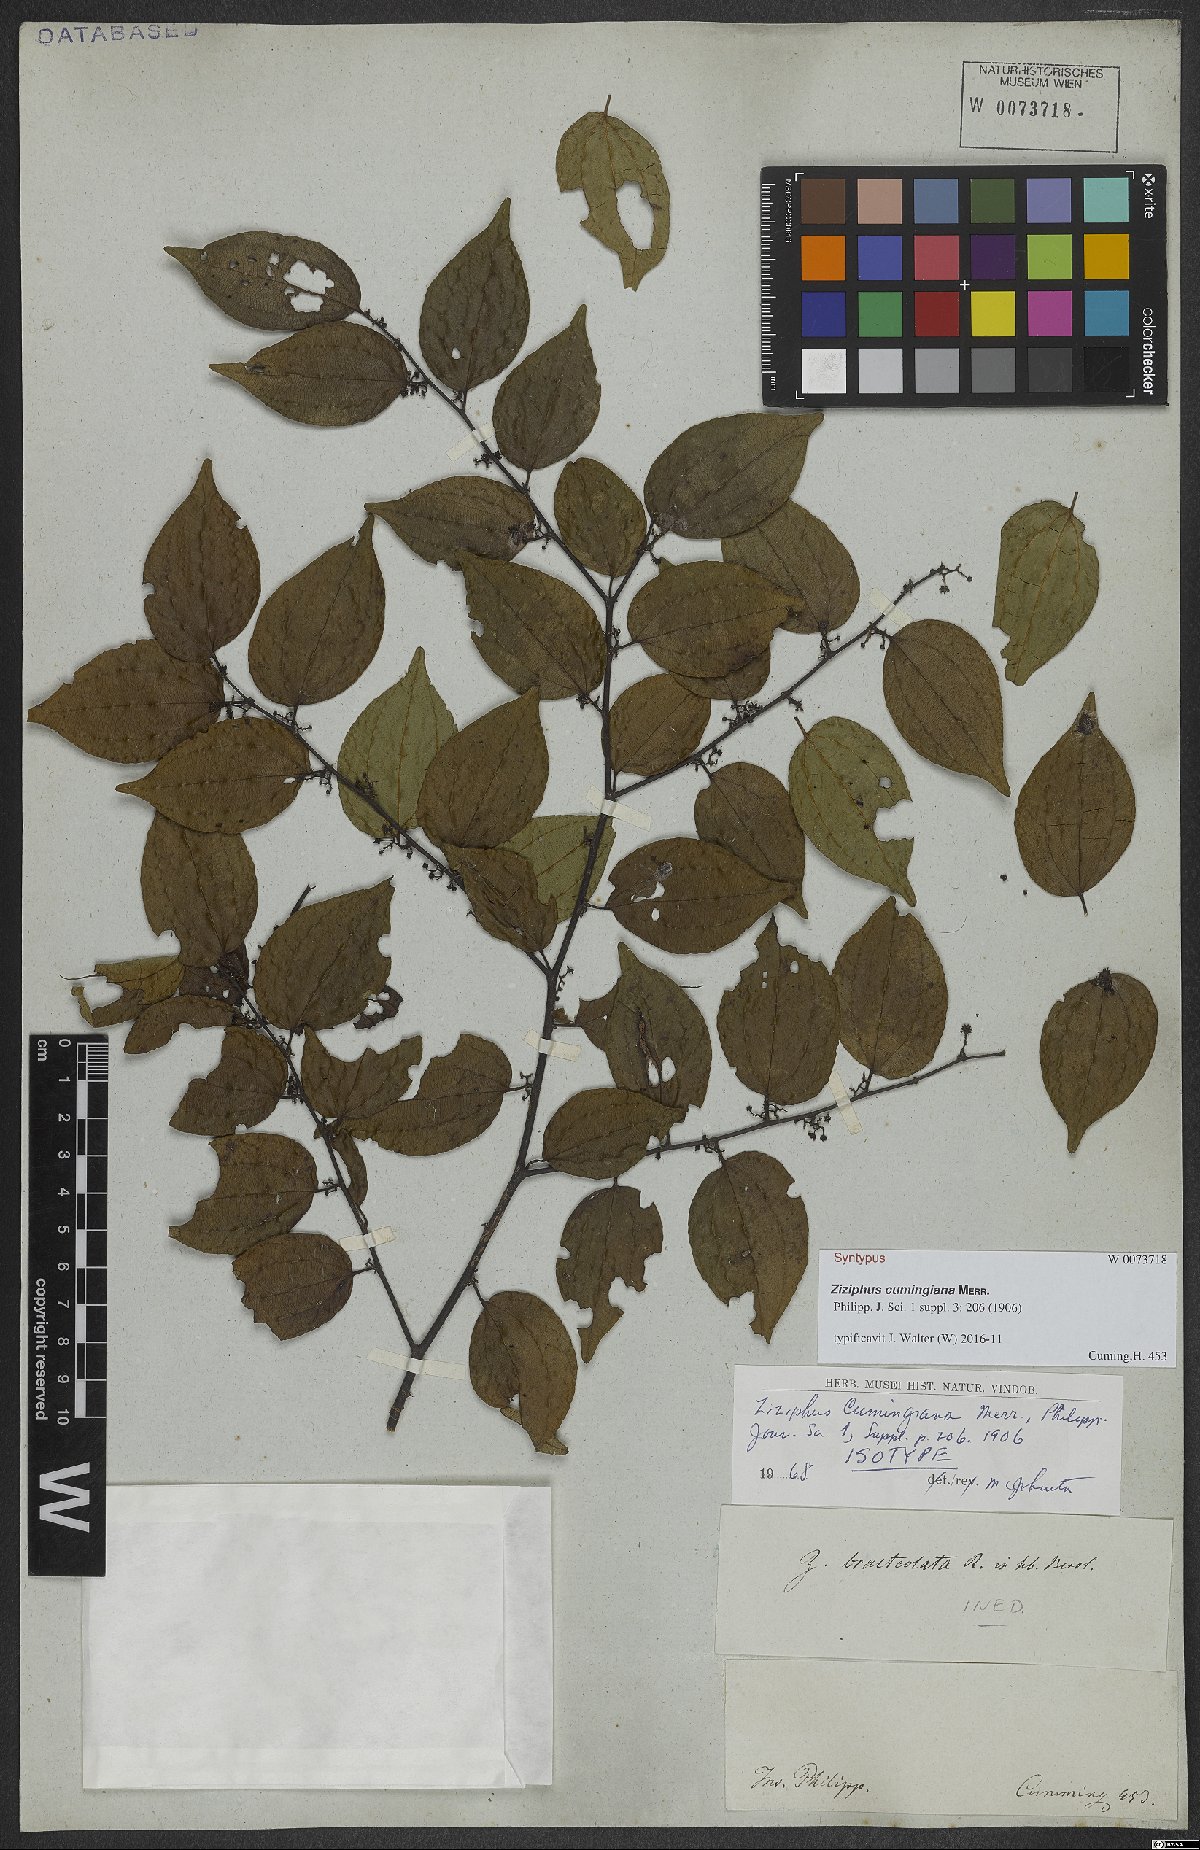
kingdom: Plantae
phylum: Tracheophyta
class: Magnoliopsida
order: Rosales
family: Rhamnaceae
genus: Ziziphus
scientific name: Ziziphus cumingiana
